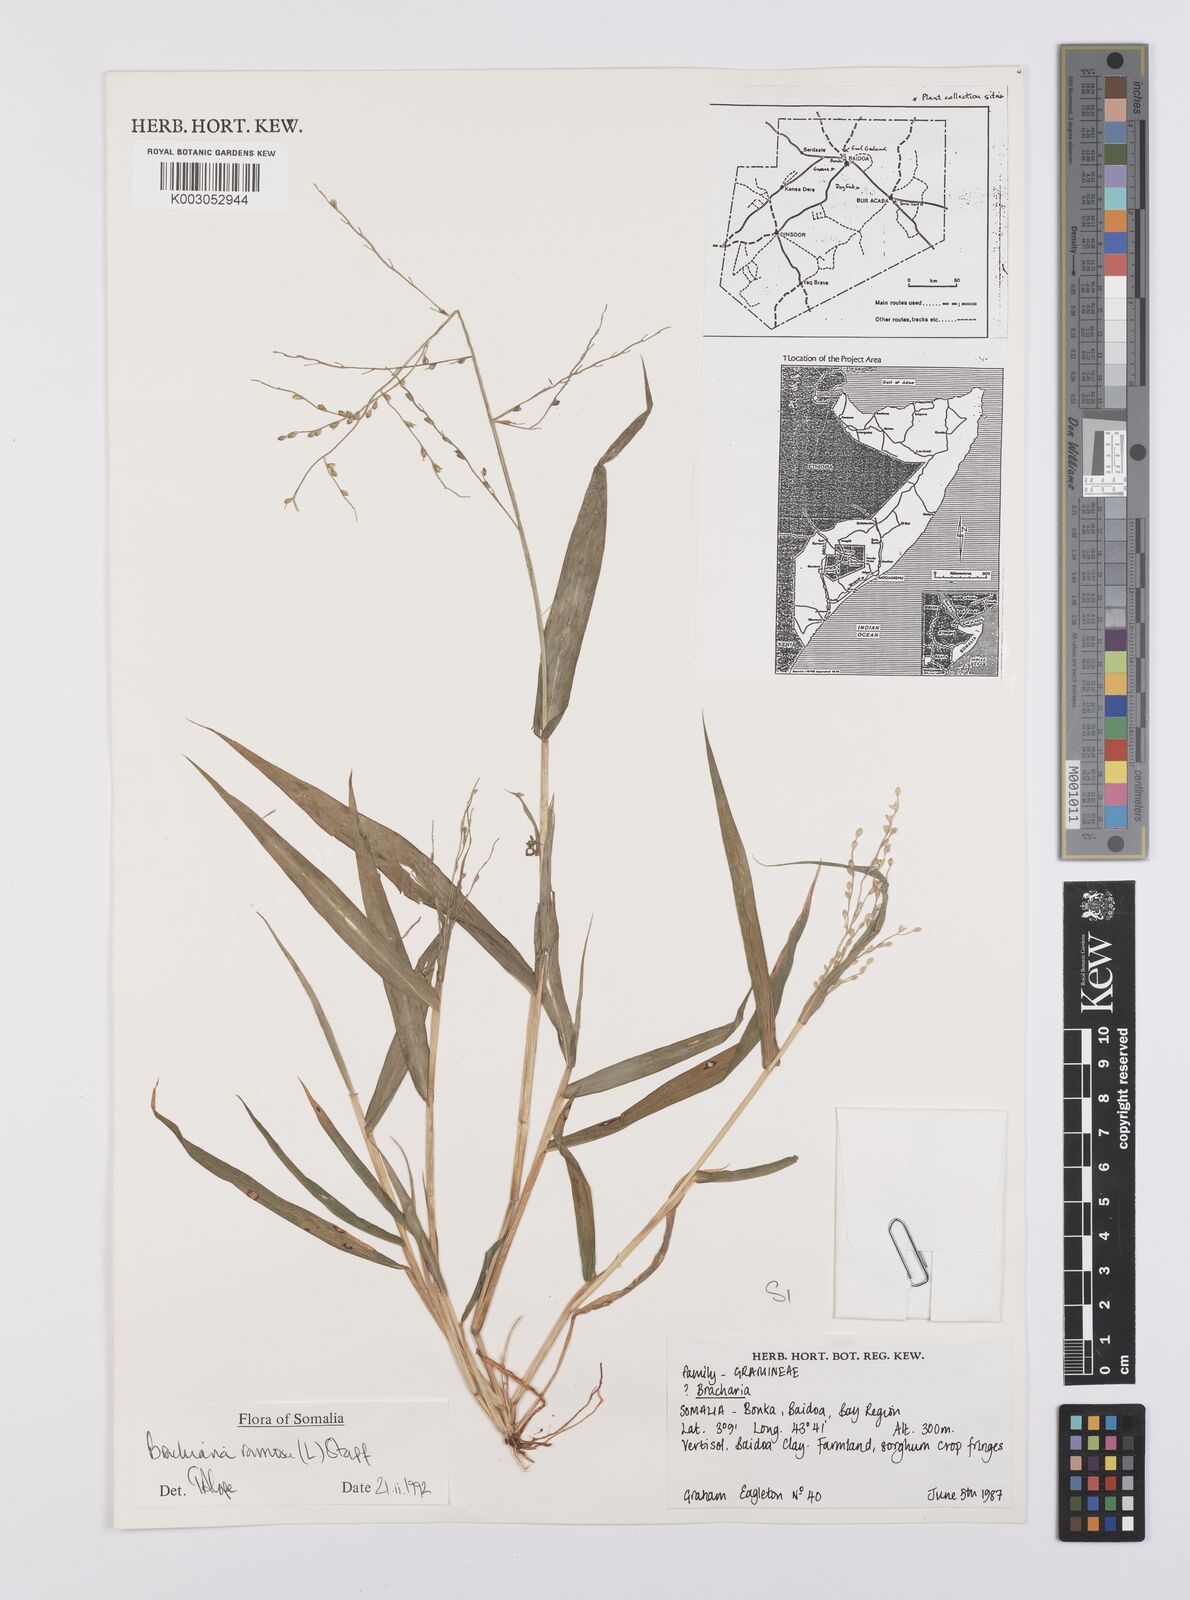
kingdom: Plantae
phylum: Tracheophyta
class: Liliopsida
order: Poales
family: Poaceae
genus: Urochloa
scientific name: Urochloa ramosa
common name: Browntop millet
